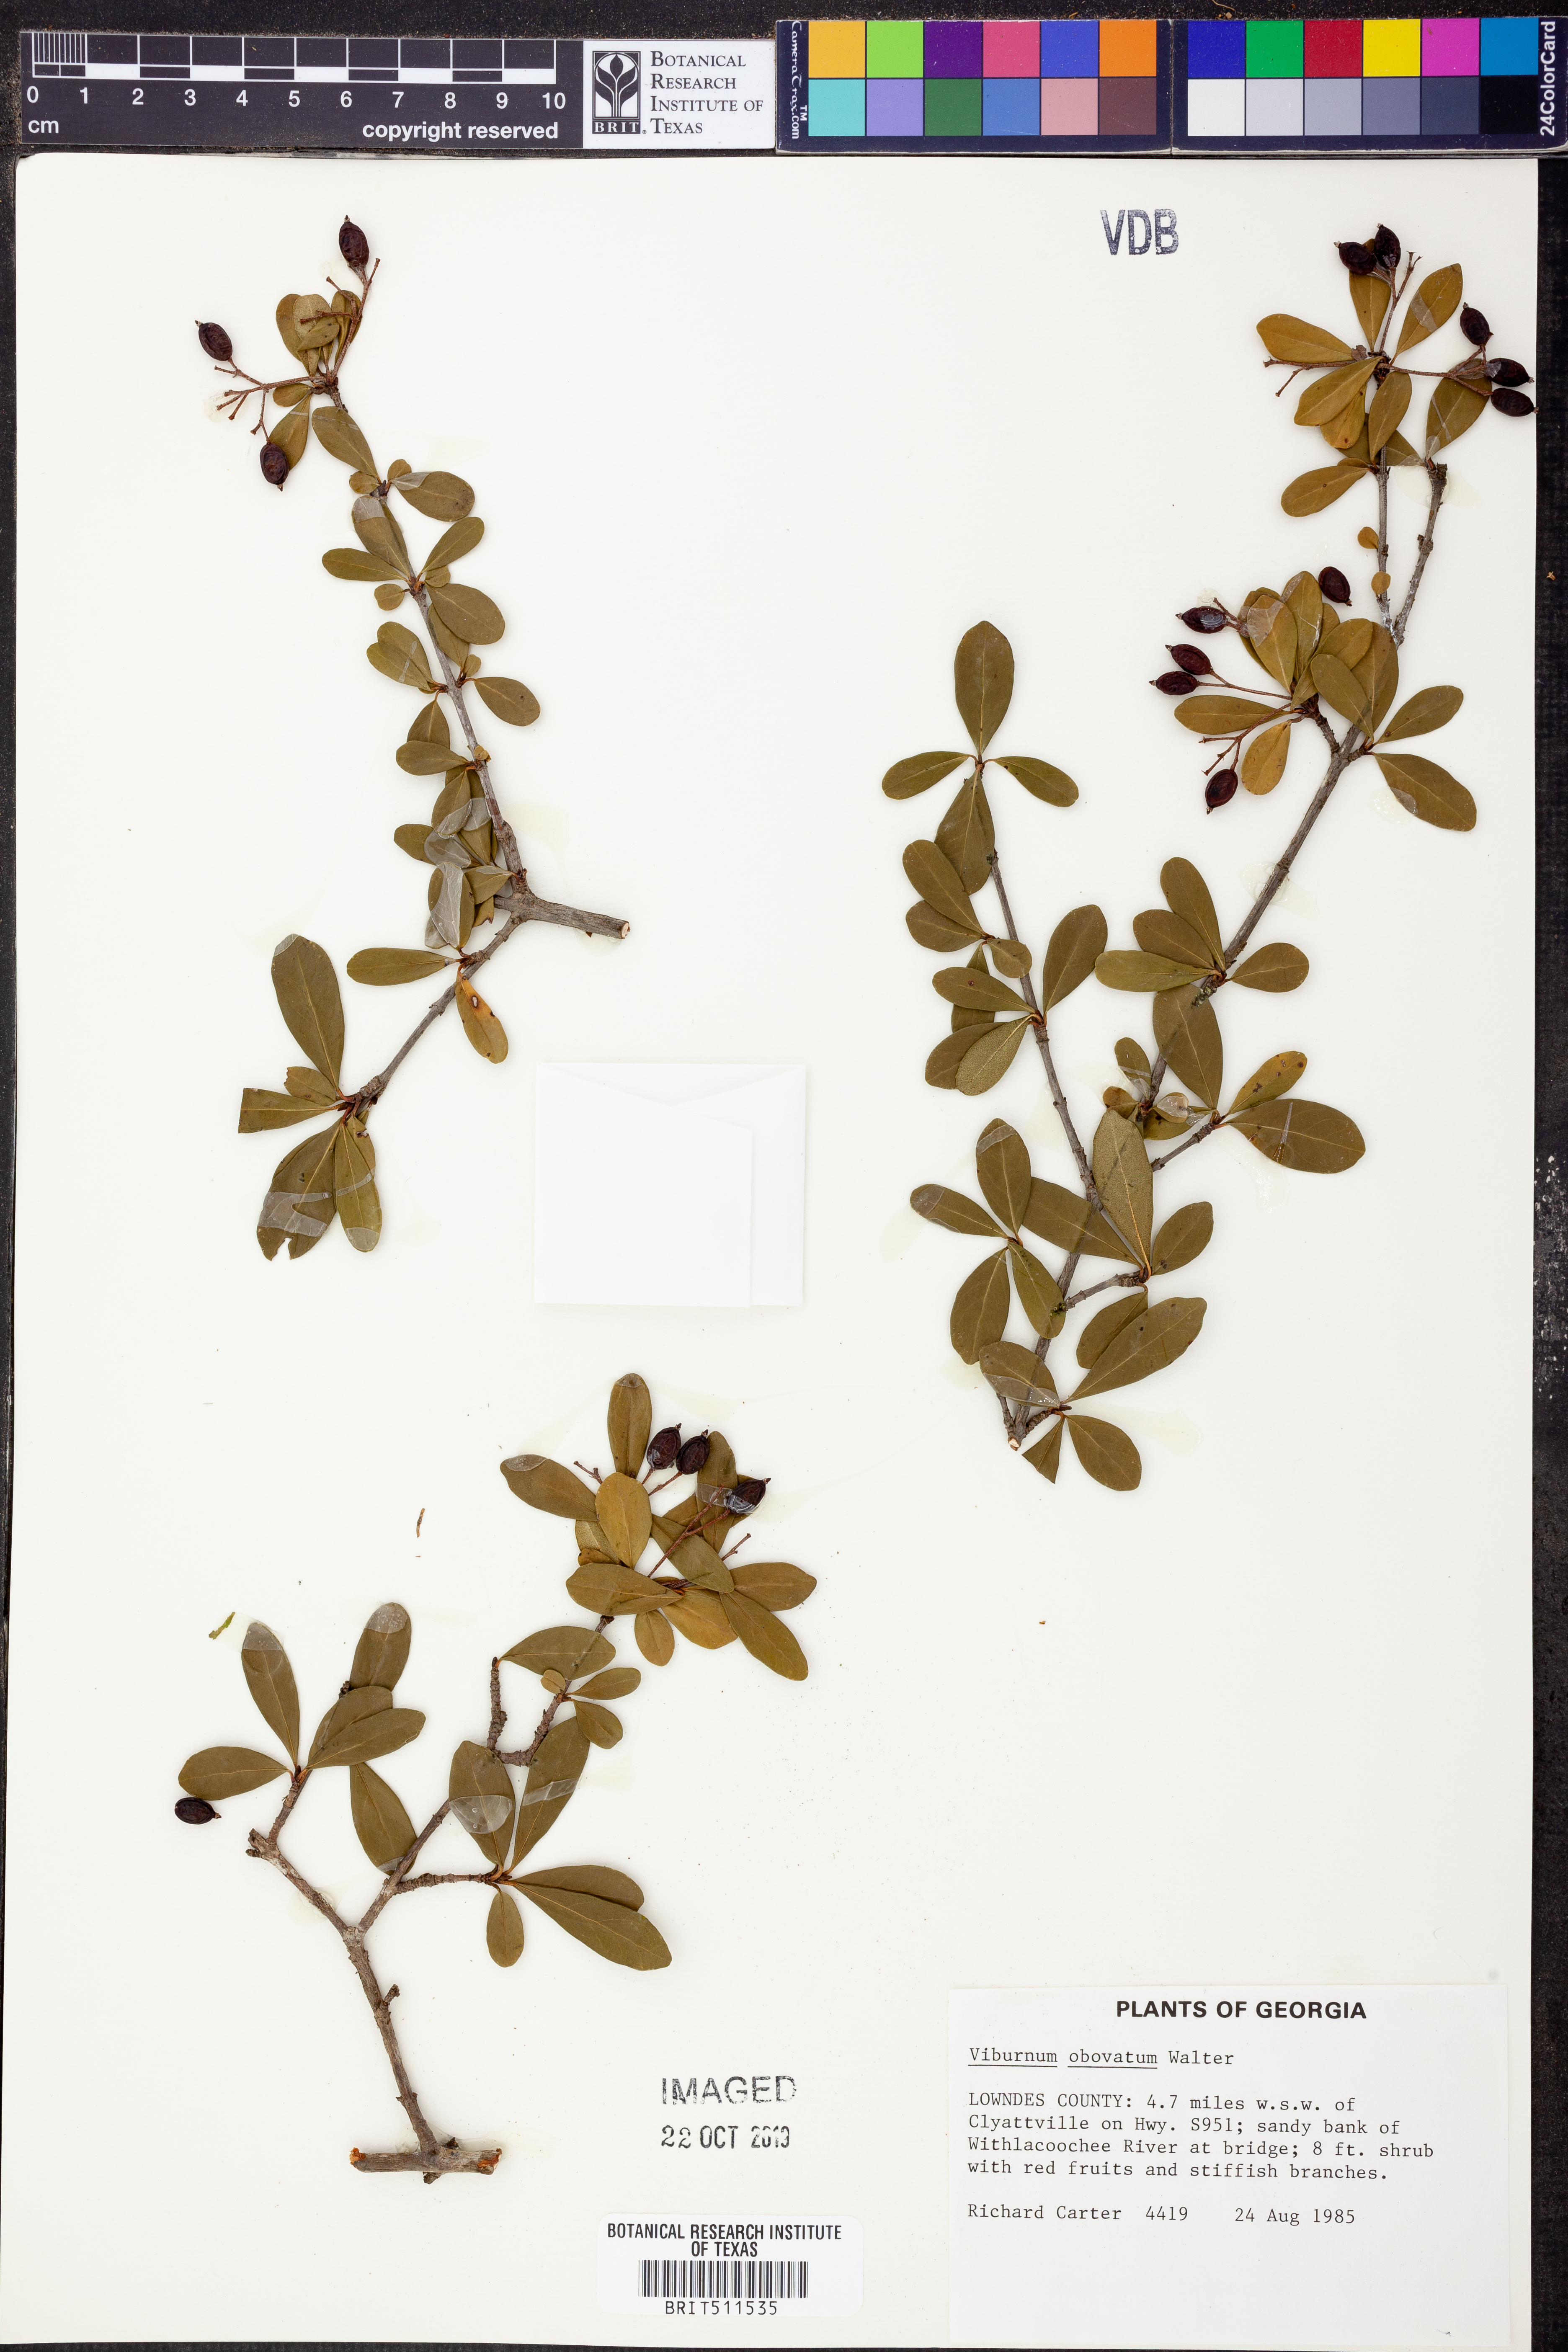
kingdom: Plantae
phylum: Tracheophyta
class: Magnoliopsida
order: Dipsacales
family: Viburnaceae
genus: Viburnum
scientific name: Viburnum obovatum
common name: Walter's viburnum
